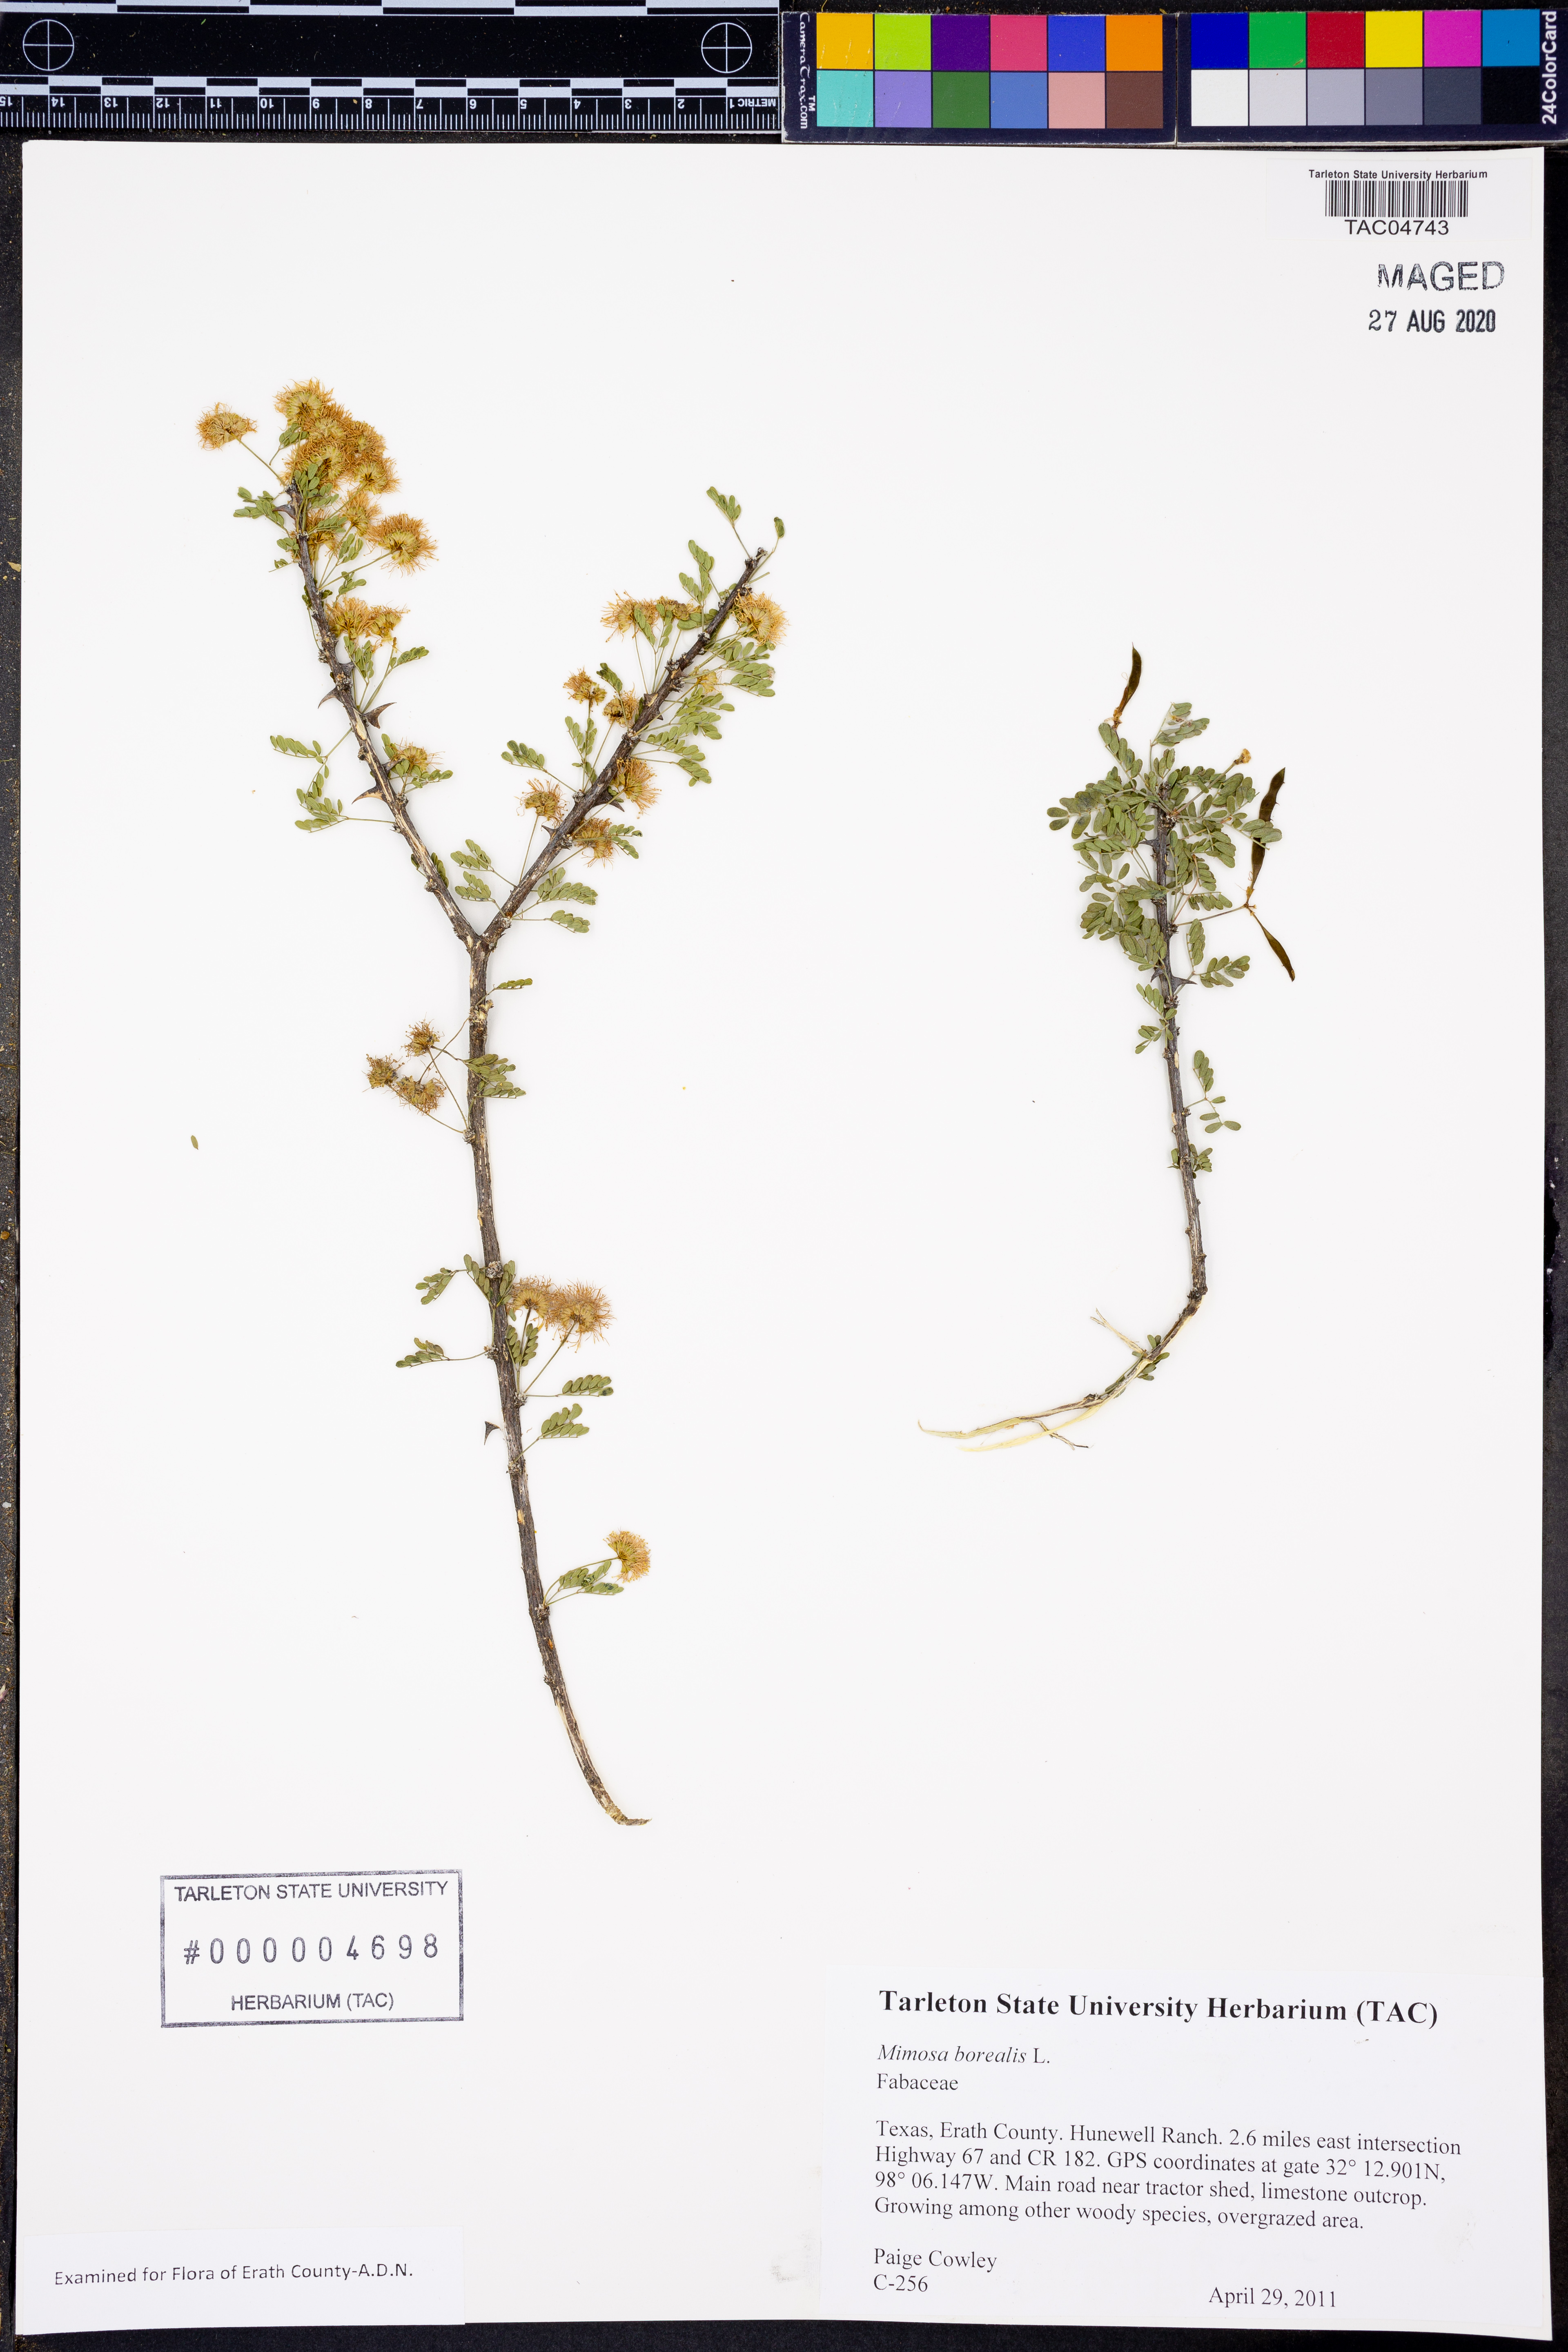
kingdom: Plantae
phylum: Tracheophyta
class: Magnoliopsida
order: Fabales
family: Fabaceae
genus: Mimosa
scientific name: Mimosa borealis
